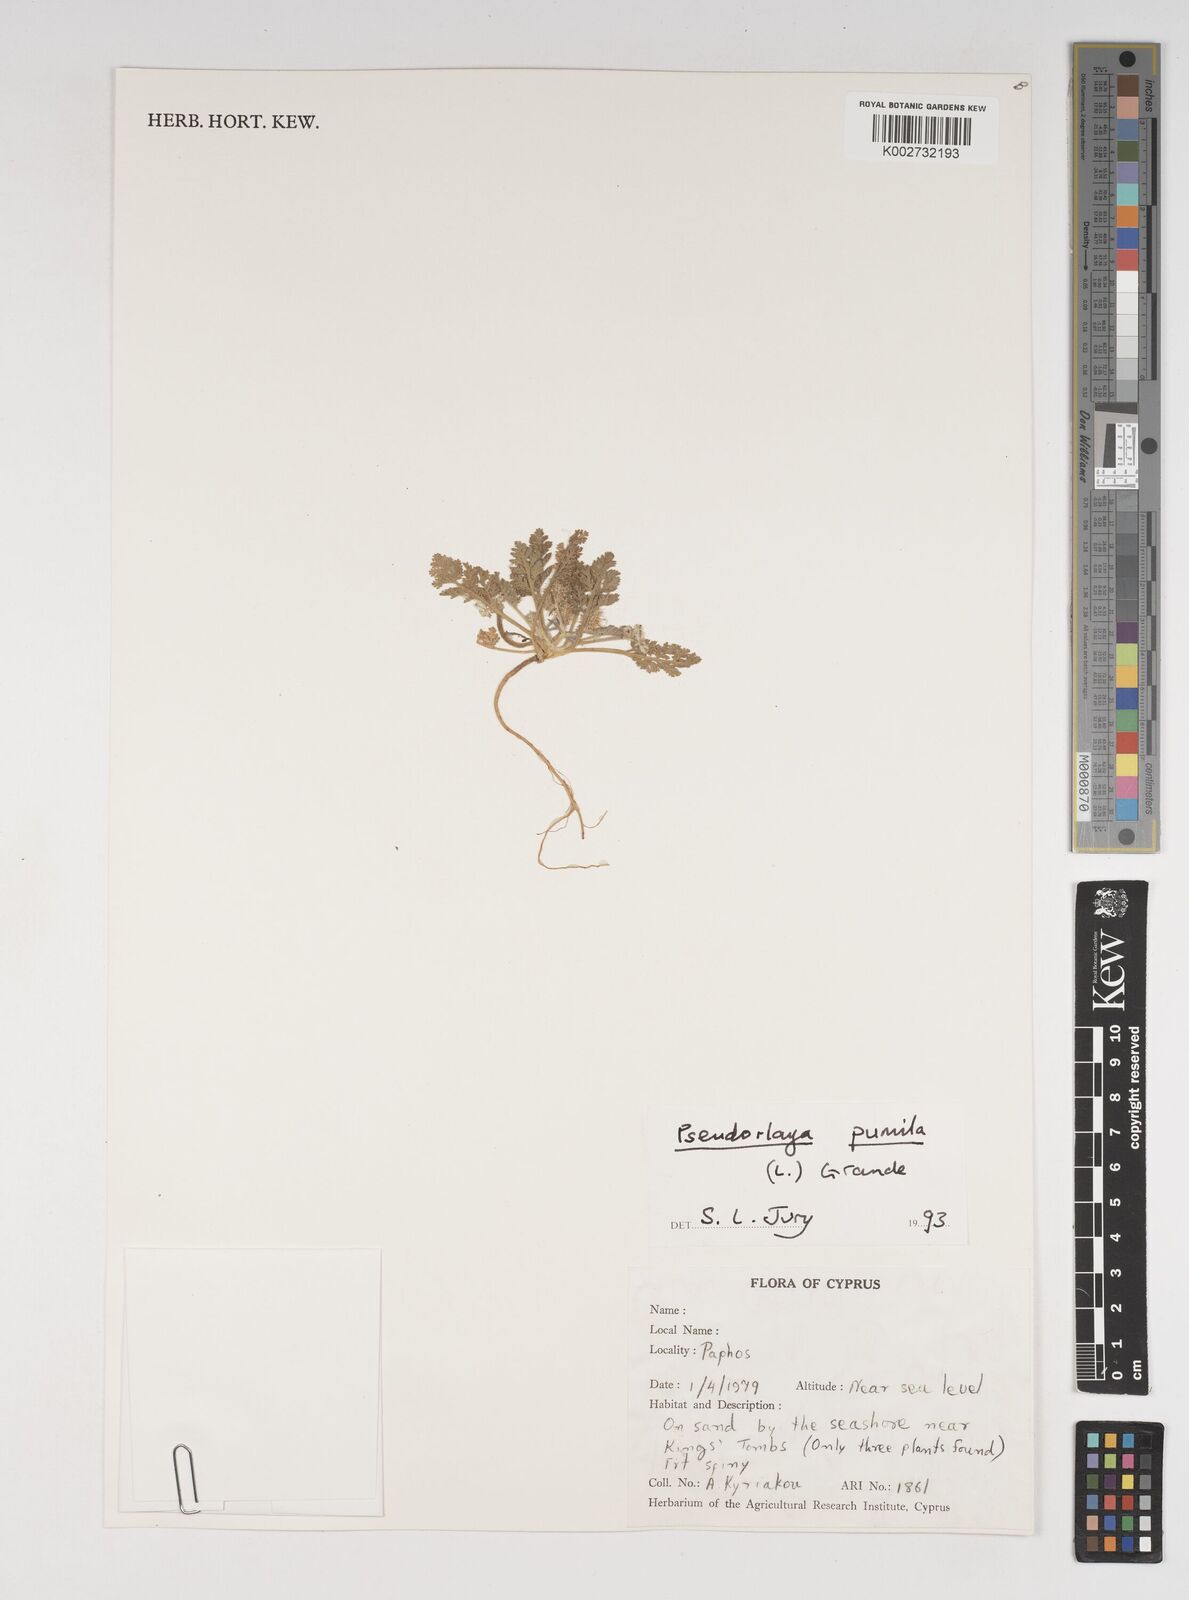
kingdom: Plantae
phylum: Tracheophyta
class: Magnoliopsida
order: Apiales
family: Apiaceae
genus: Daucus
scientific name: Daucus pumilus
